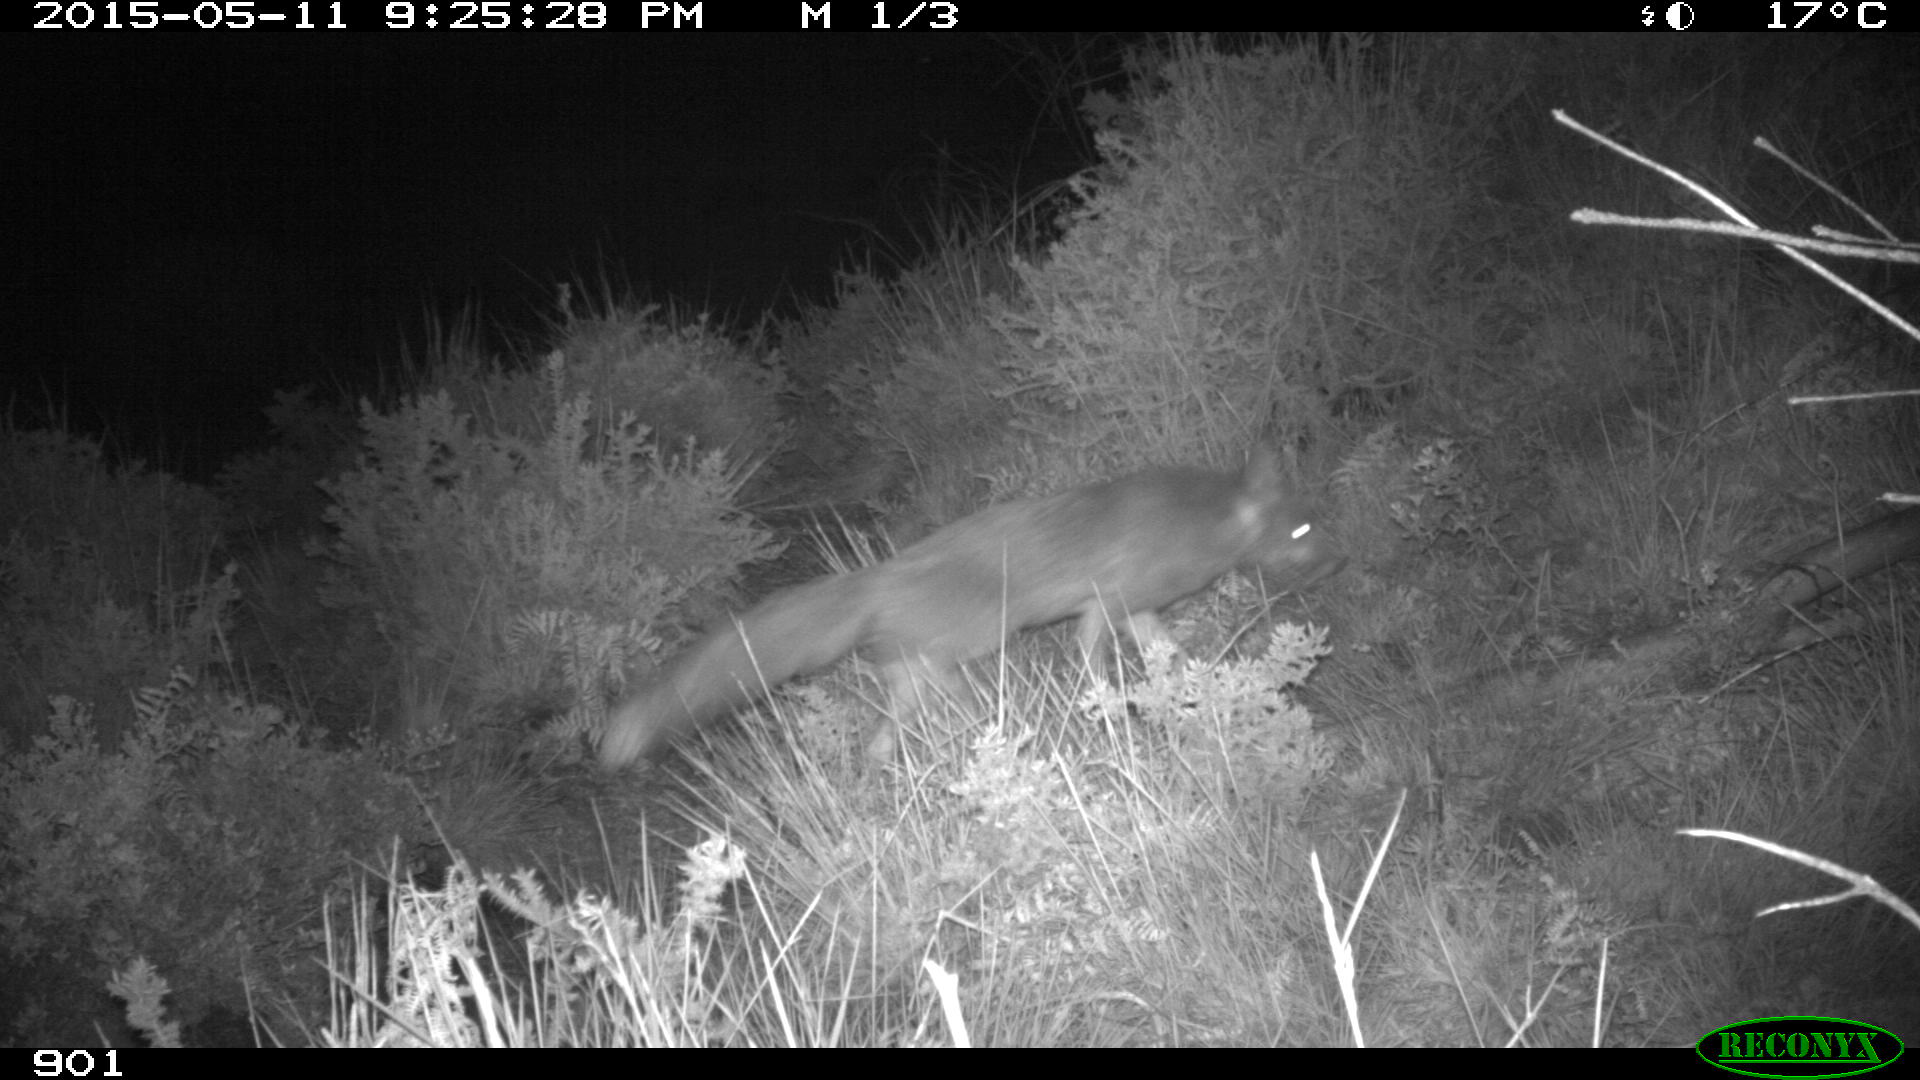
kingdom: Animalia
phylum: Chordata
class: Mammalia
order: Carnivora
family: Canidae
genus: Vulpes
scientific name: Vulpes vulpes
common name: Red fox
